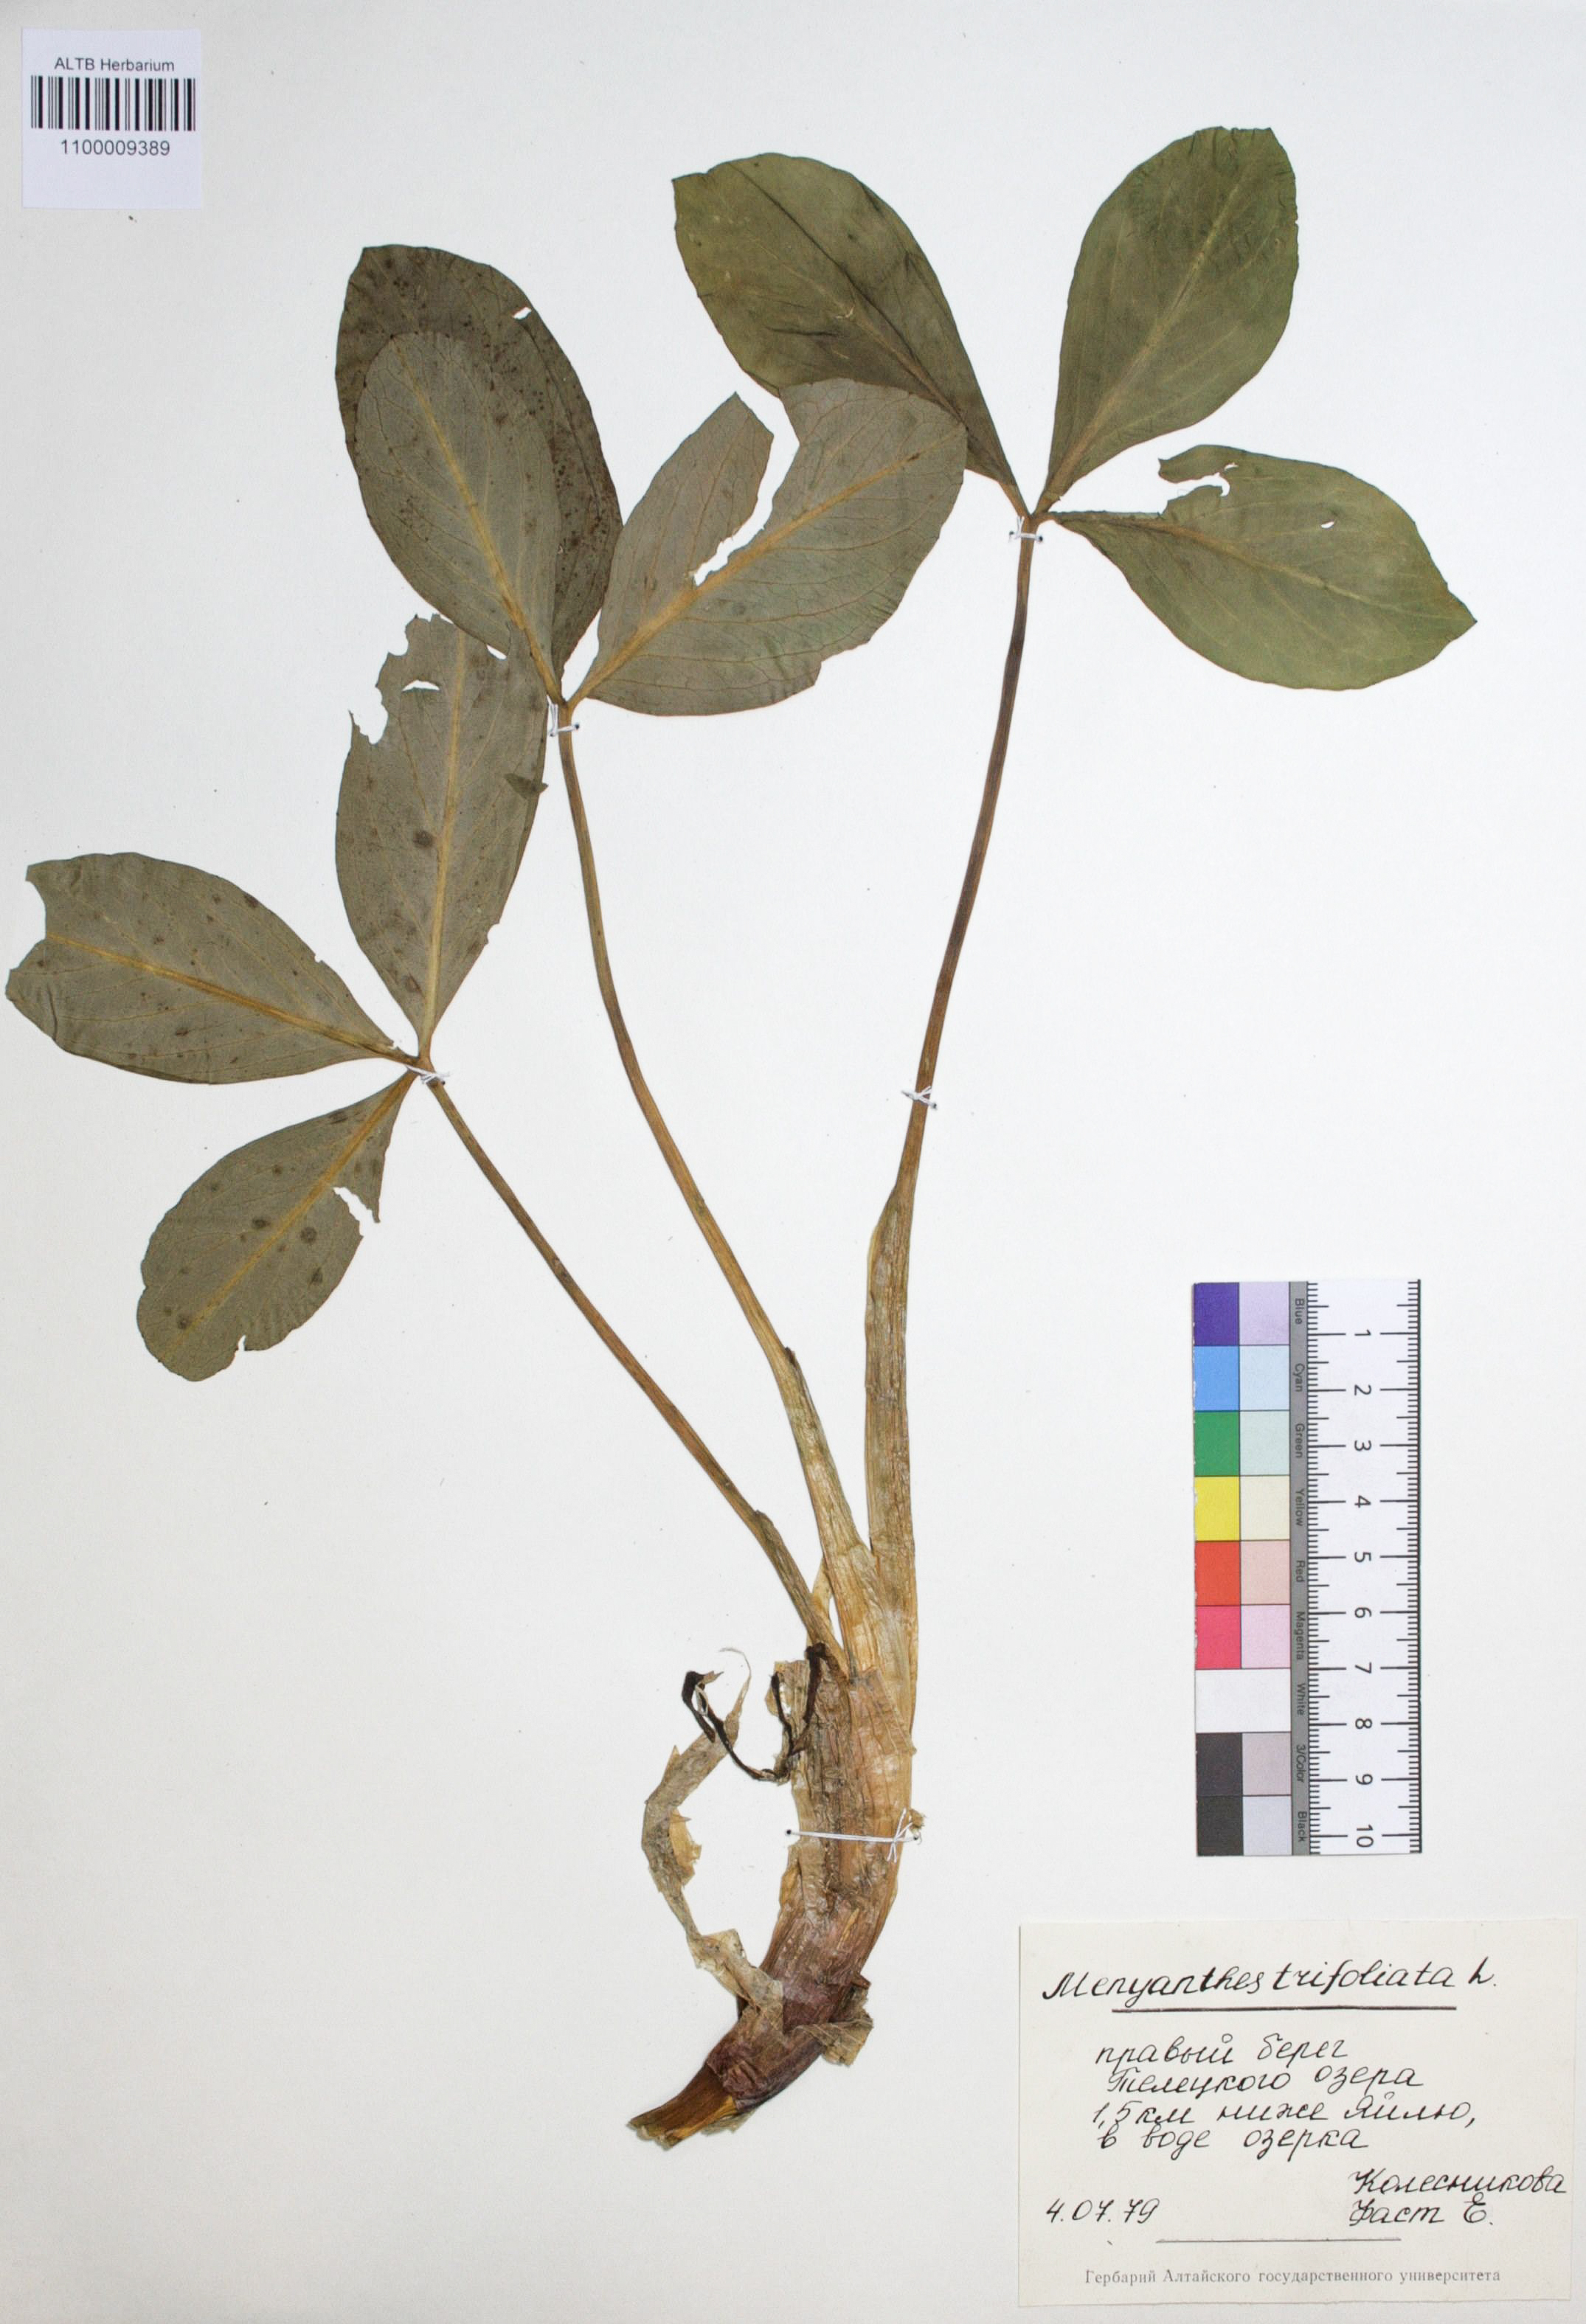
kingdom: Plantae
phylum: Tracheophyta
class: Magnoliopsida
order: Asterales
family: Menyanthaceae
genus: Menyanthes
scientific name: Menyanthes trifoliata
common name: Bogbean
